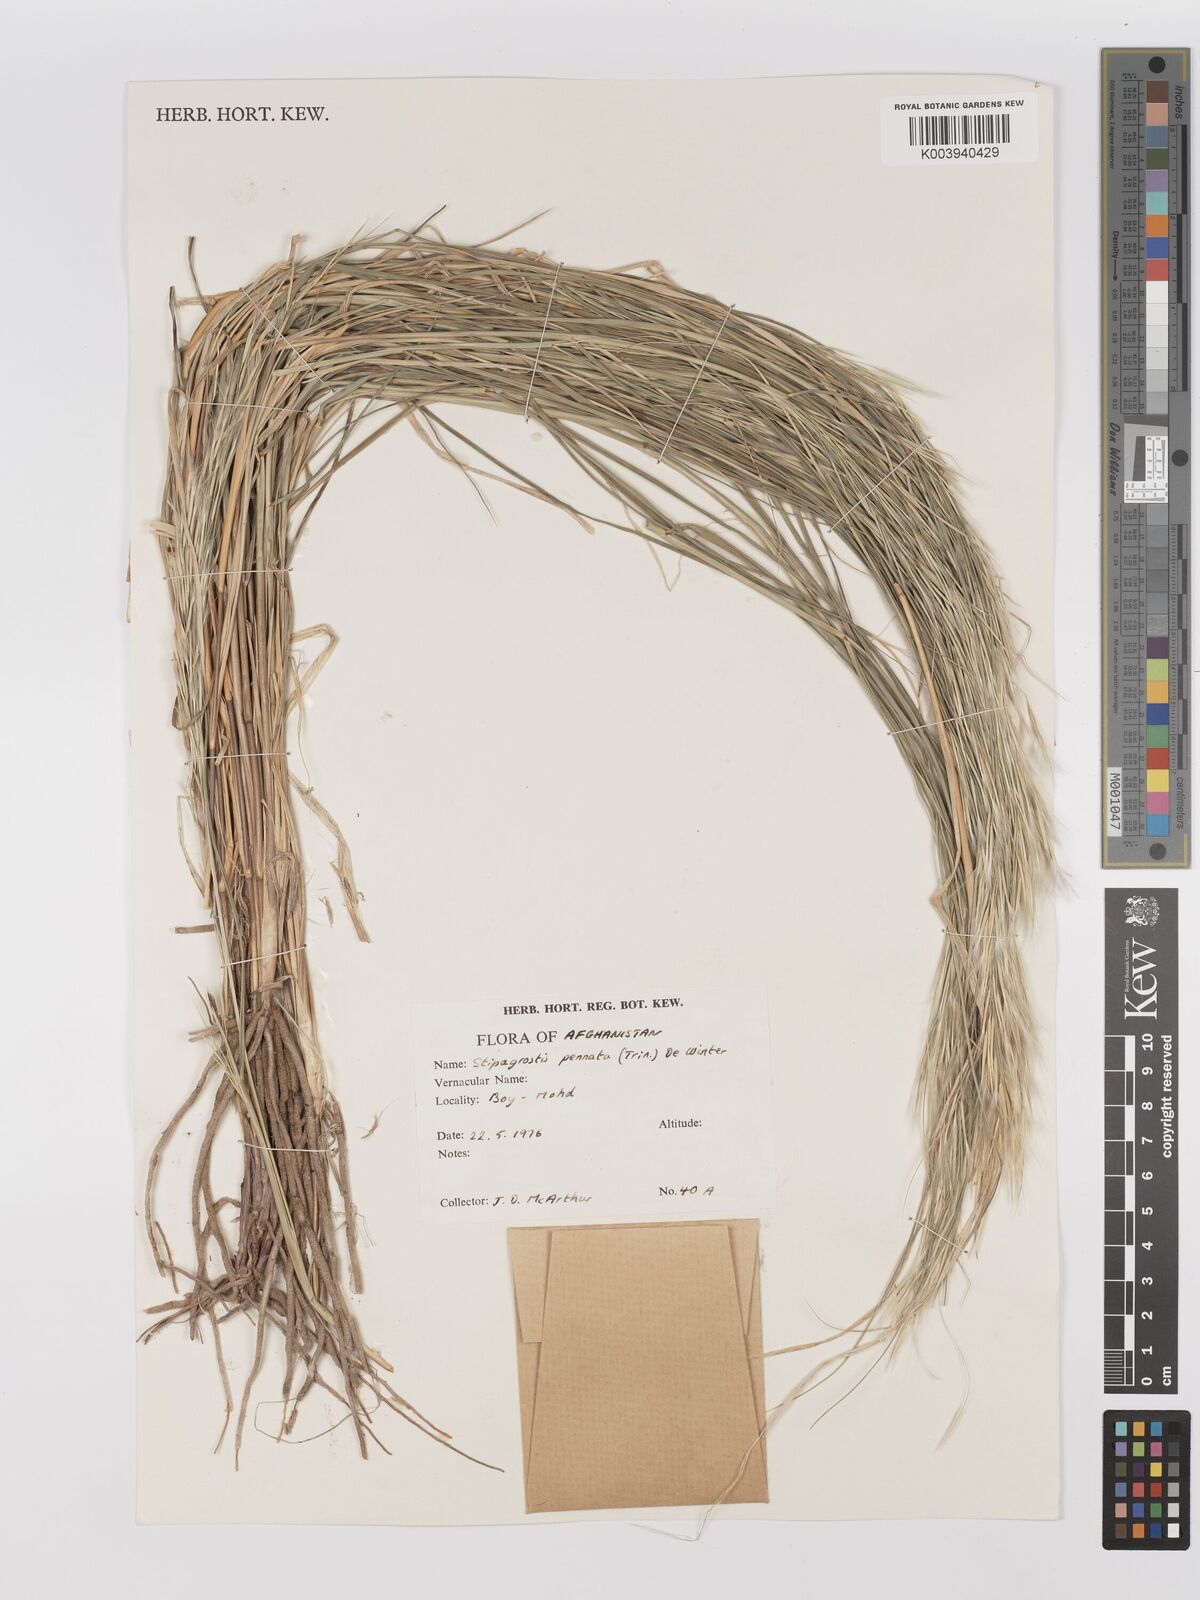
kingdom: Plantae
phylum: Tracheophyta
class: Liliopsida
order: Poales
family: Poaceae
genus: Stipagrostis
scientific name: Stipagrostis pennata
